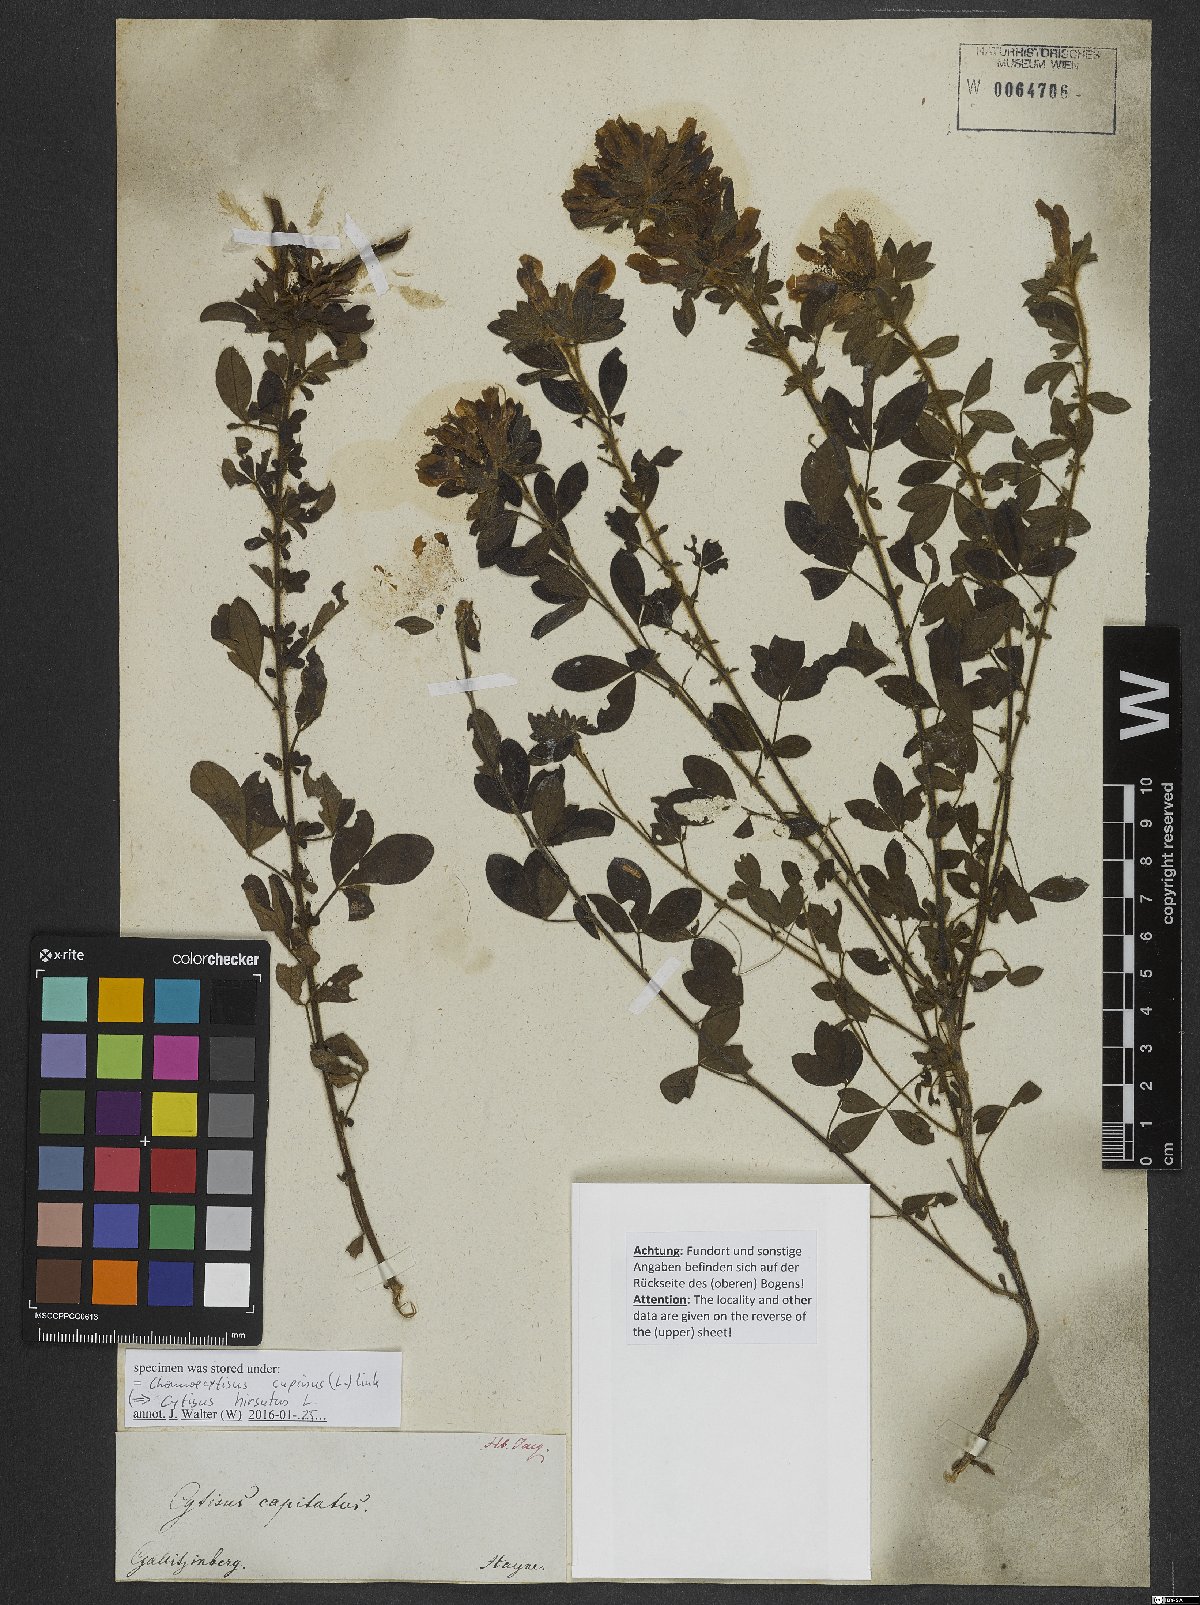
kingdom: Plantae
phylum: Tracheophyta
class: Magnoliopsida
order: Fabales
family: Fabaceae
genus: Chamaecytisus
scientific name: Chamaecytisus supinus
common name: Clustered broom
